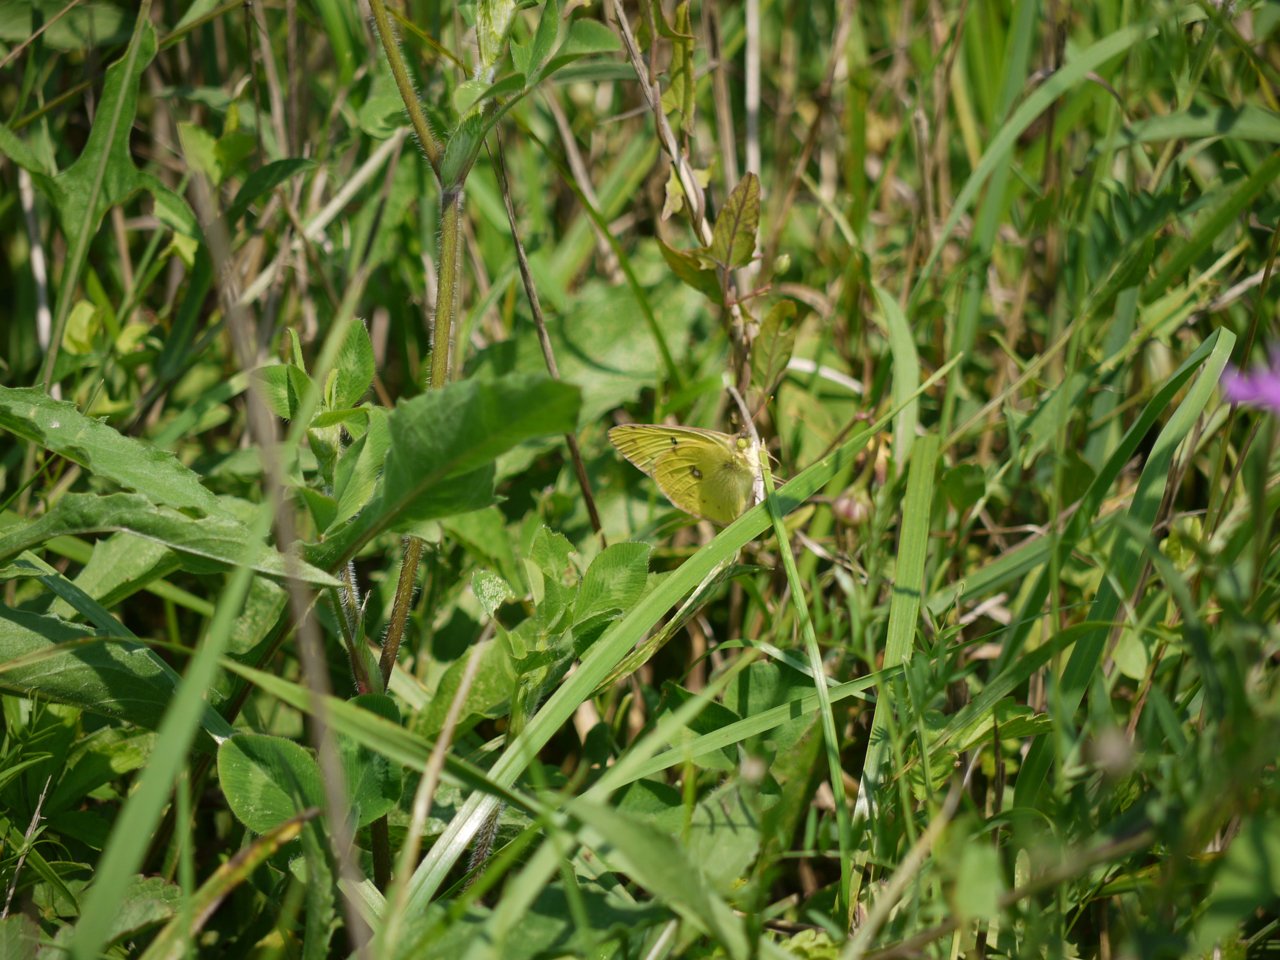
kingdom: Animalia
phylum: Arthropoda
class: Insecta
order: Lepidoptera
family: Pieridae
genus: Colias
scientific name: Colias philodice
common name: Clouded Sulphur
